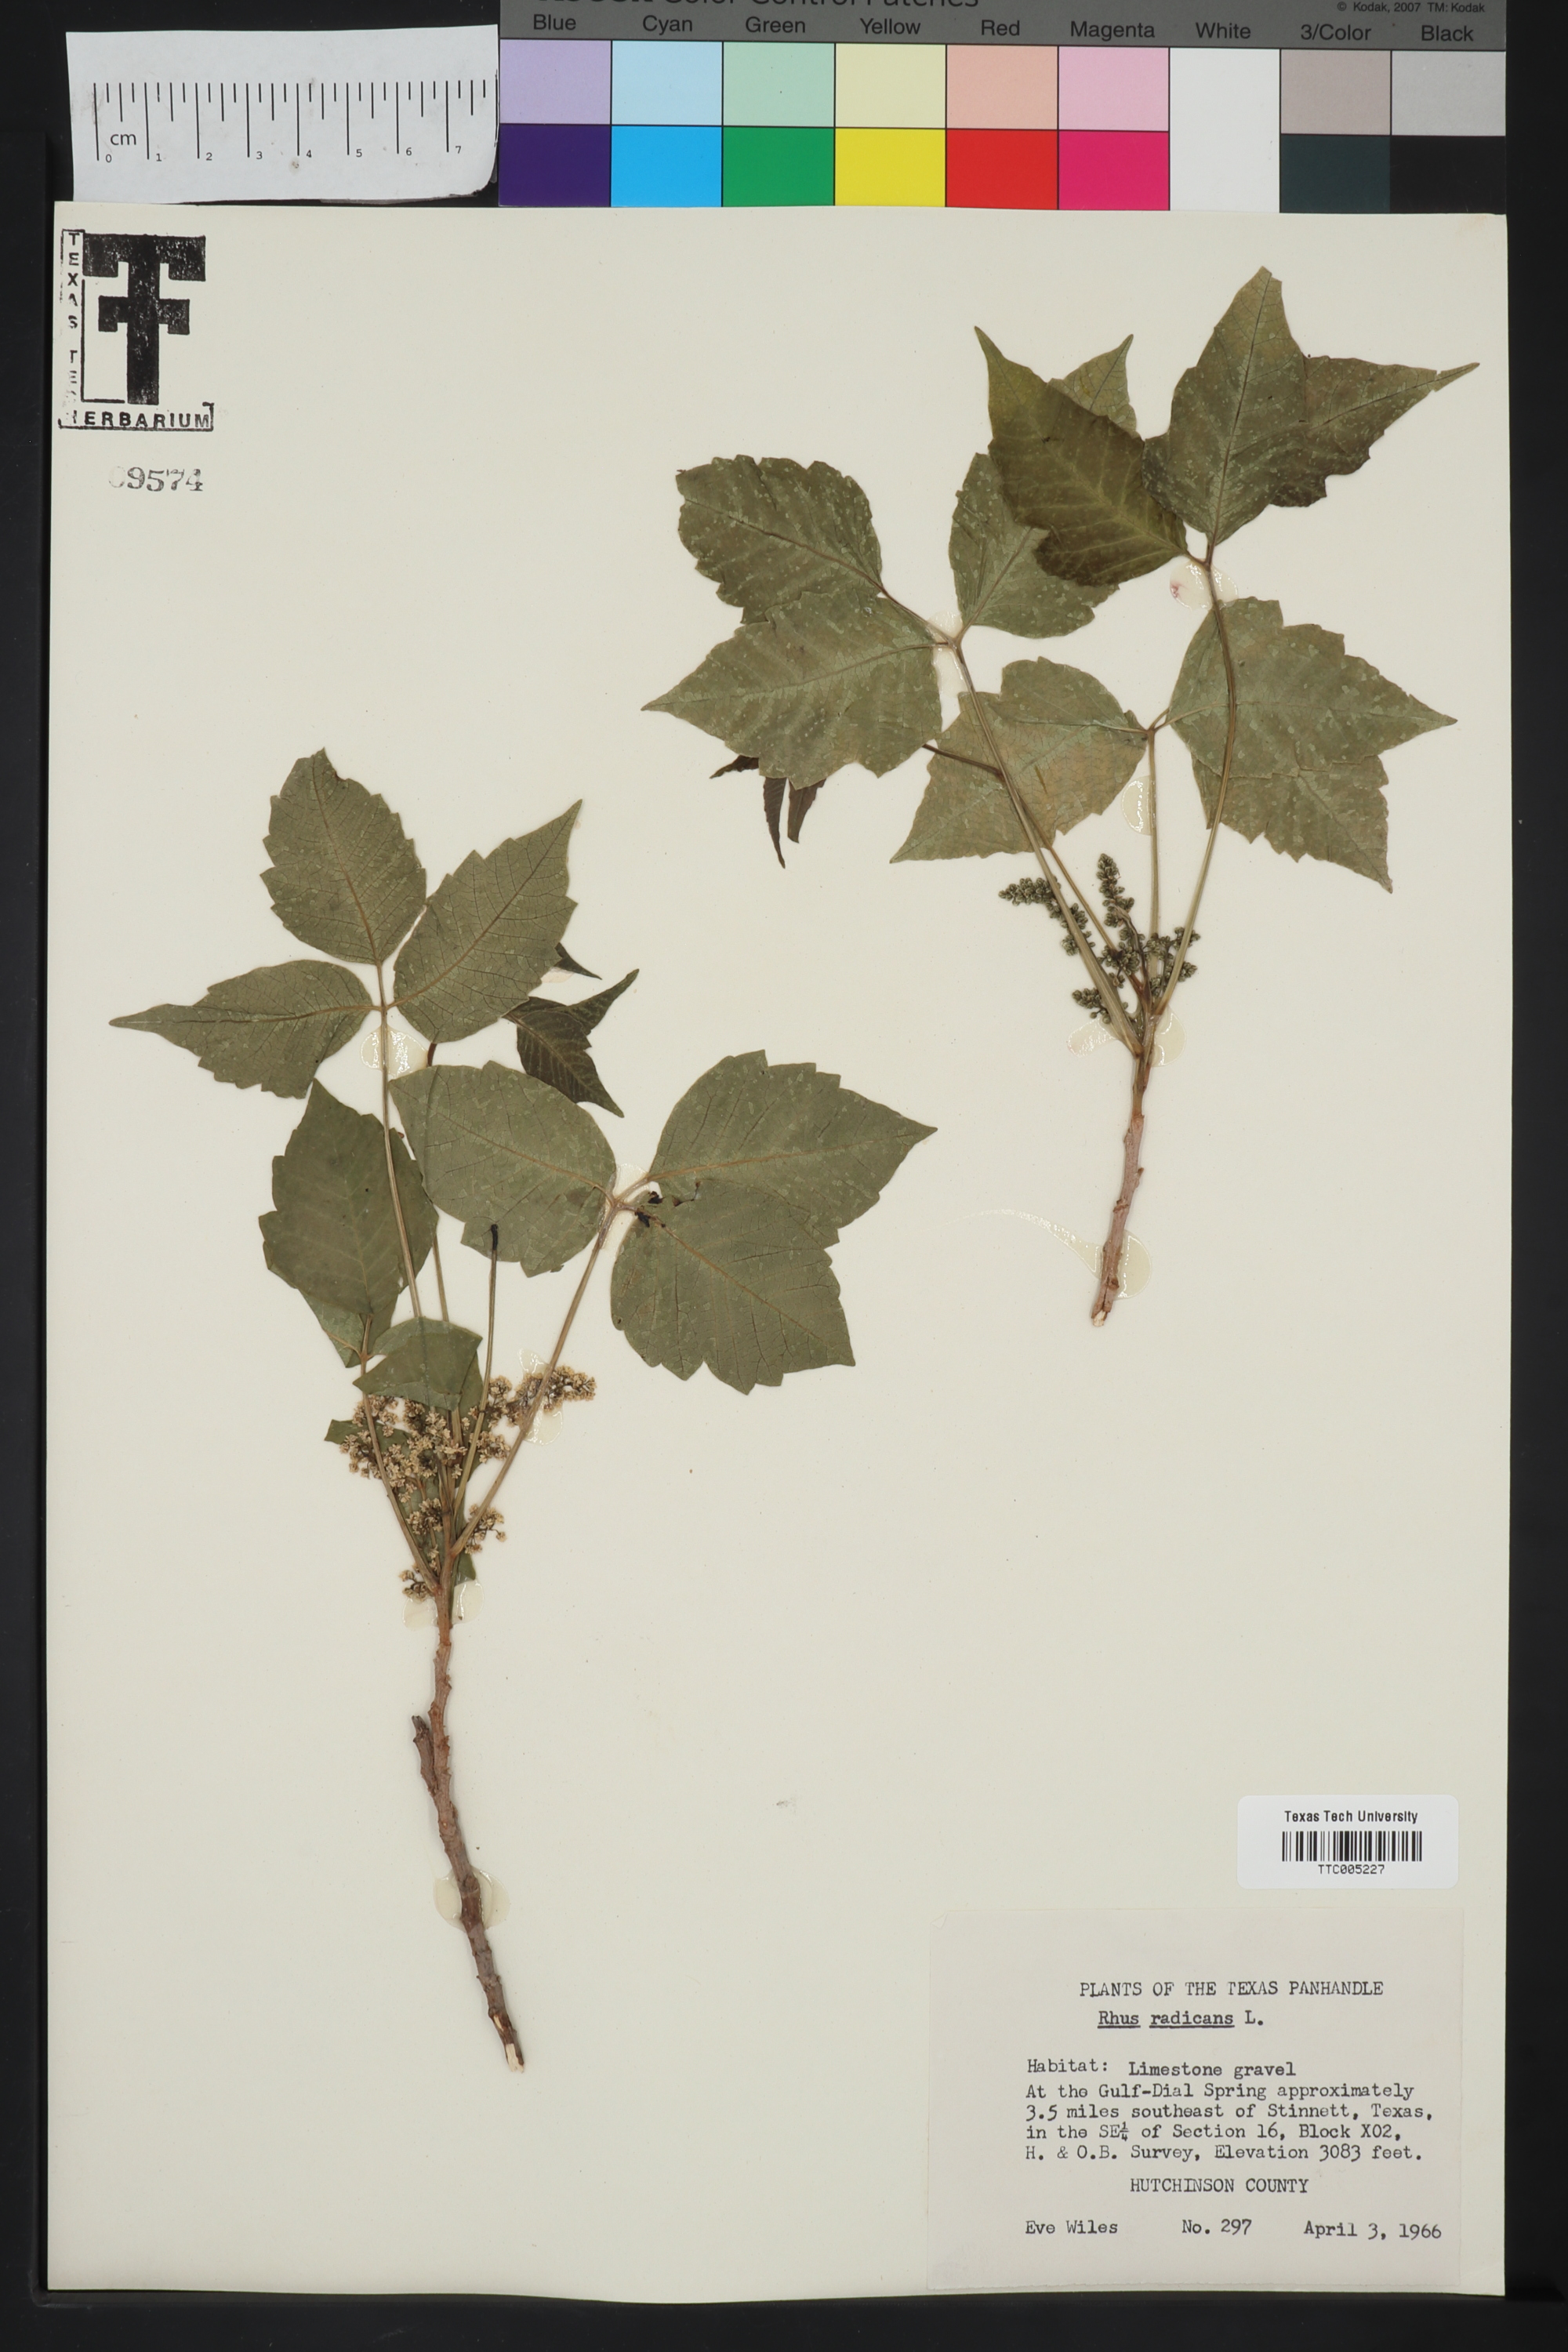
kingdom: Plantae
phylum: Tracheophyta
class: Magnoliopsida
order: Sapindales
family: Anacardiaceae
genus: Toxicodendron
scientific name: Toxicodendron radicans
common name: Poison ivy
